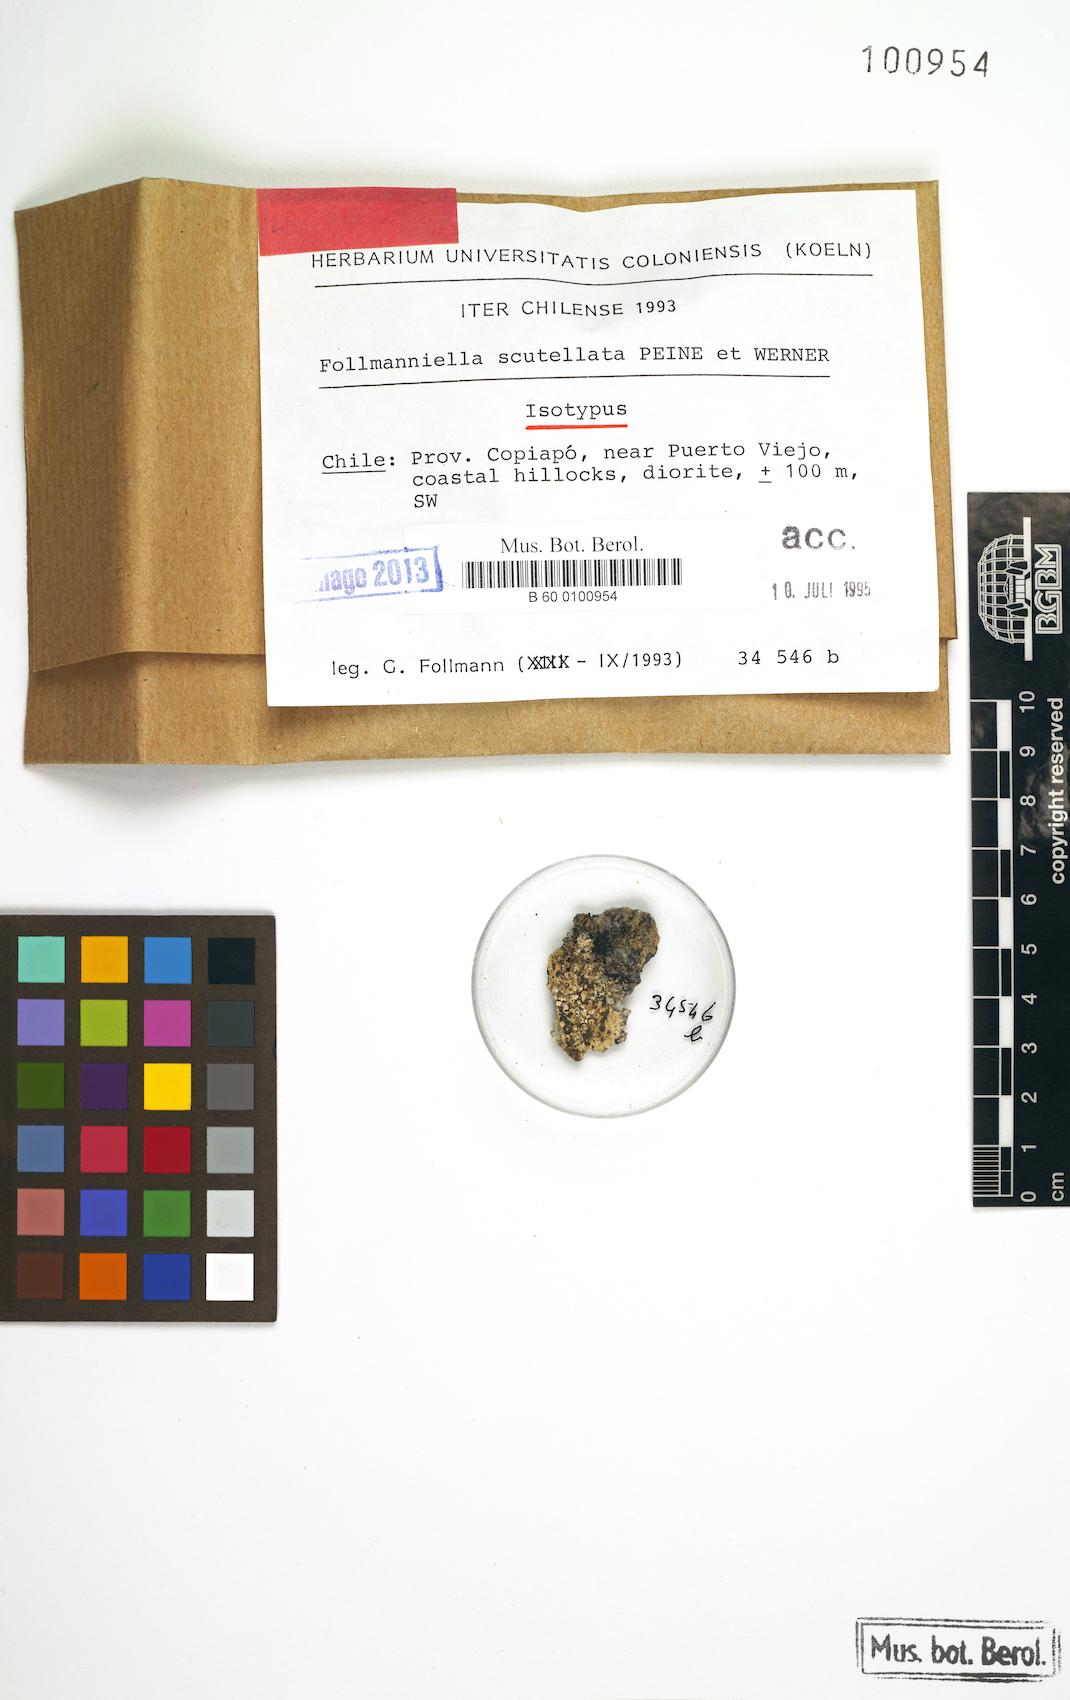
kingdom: Fungi
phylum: Ascomycota
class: Arthoniomycetes
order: Arthoniales
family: Roccellaceae
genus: Follmanniella
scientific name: Follmanniella scutellata
